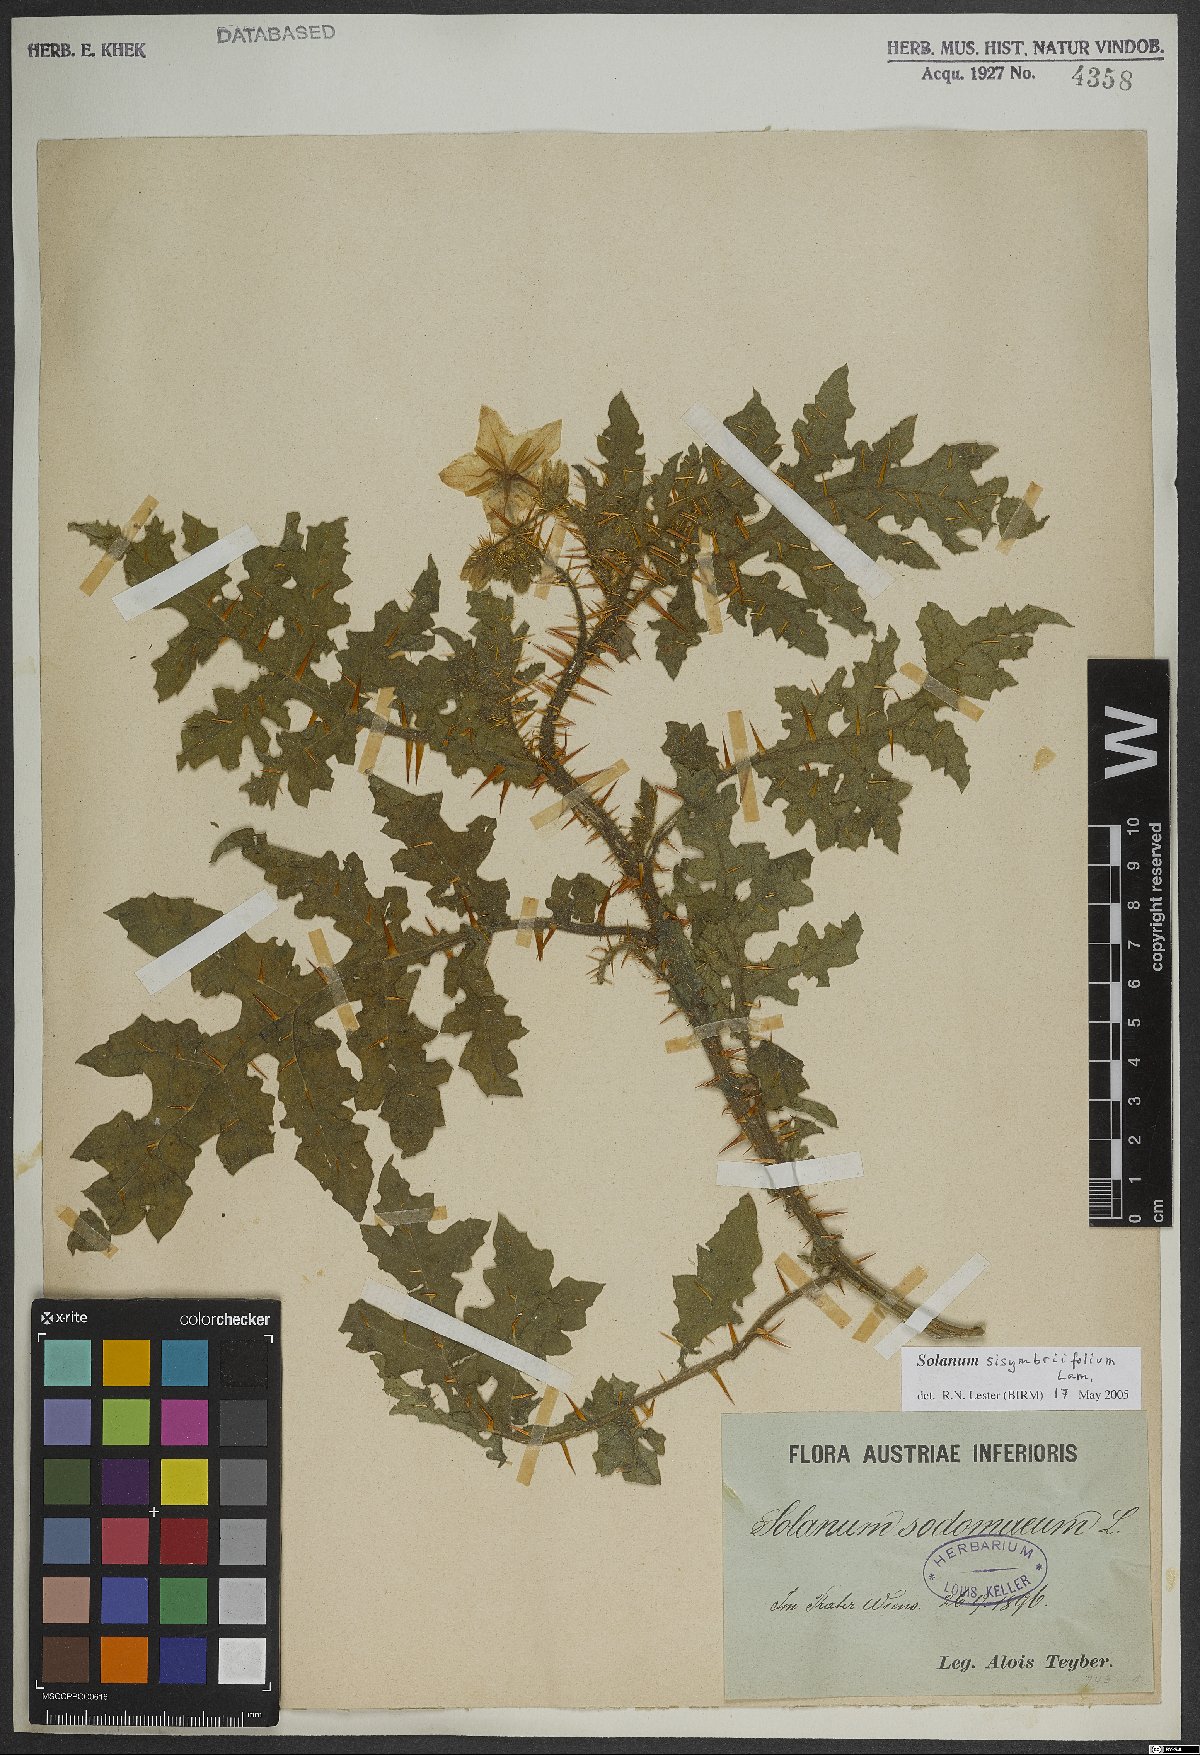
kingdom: Plantae
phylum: Tracheophyta
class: Magnoliopsida
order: Solanales
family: Solanaceae
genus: Solanum
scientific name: Solanum sisymbriifolium
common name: Red buffalo-bur
